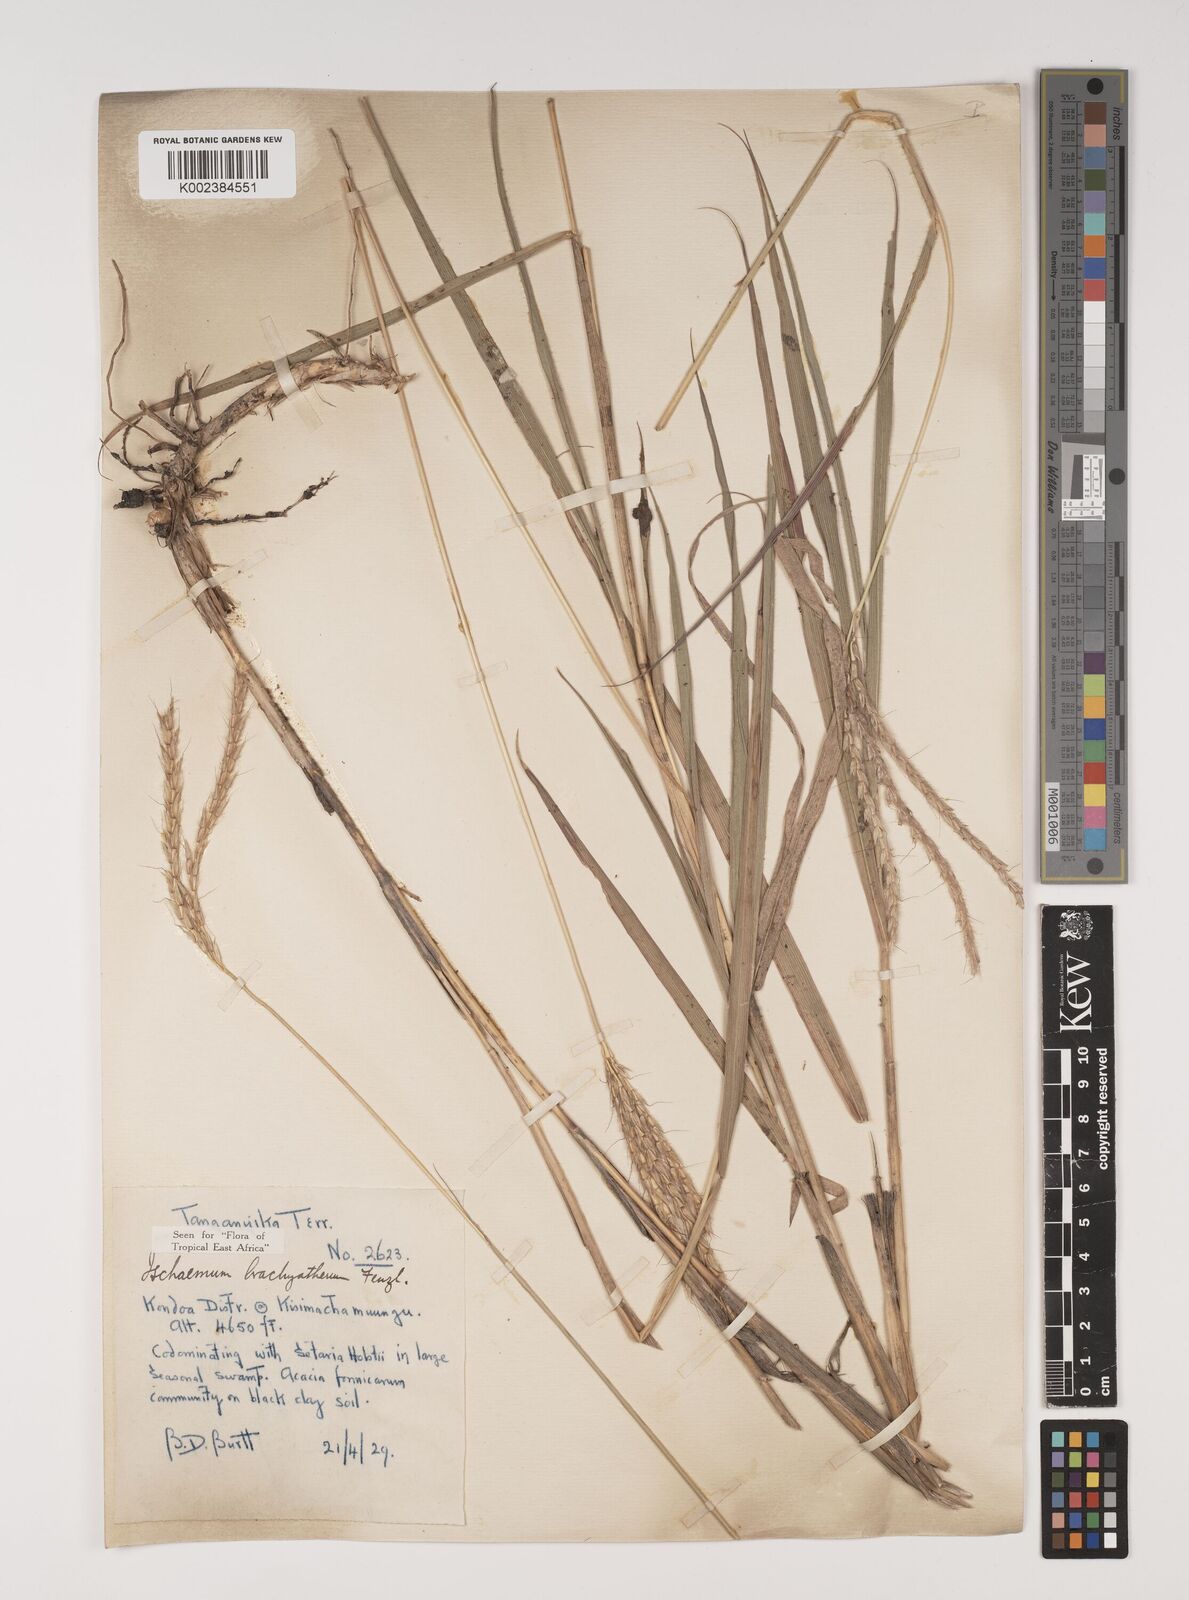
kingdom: Plantae
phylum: Tracheophyta
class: Liliopsida
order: Poales
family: Poaceae
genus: Ischaemum
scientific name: Ischaemum afrum
